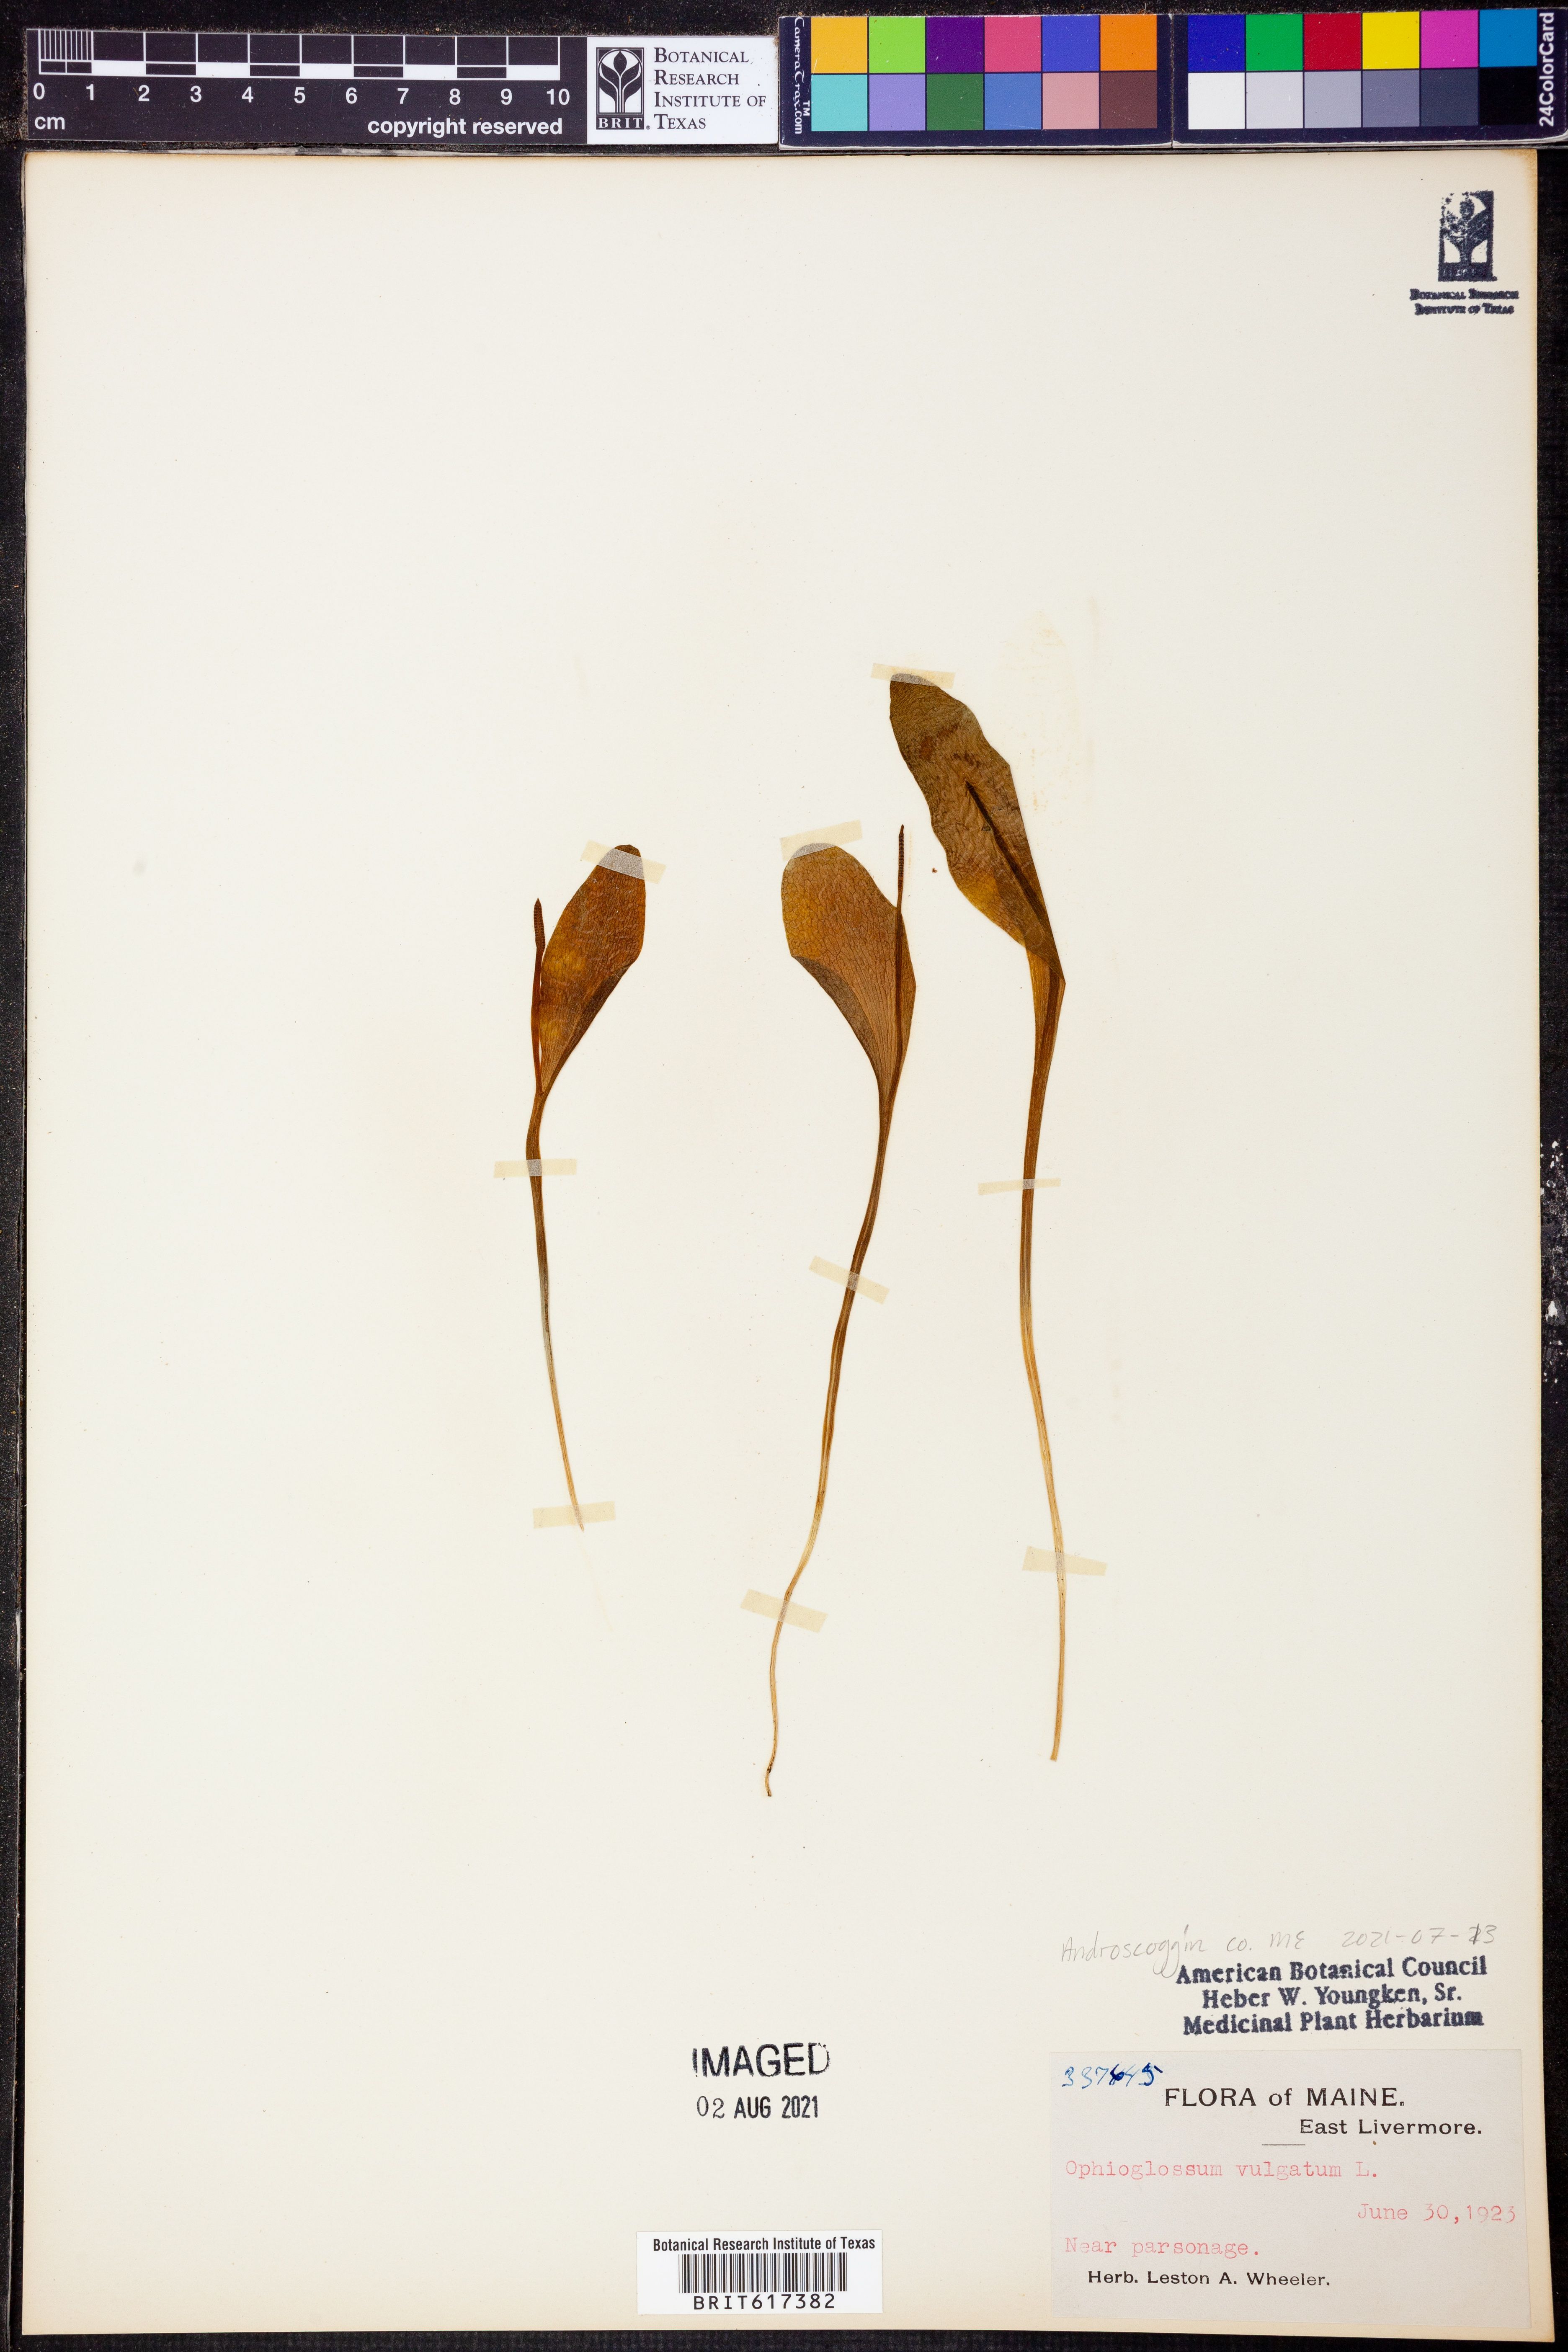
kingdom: Plantae
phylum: Tracheophyta
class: Polypodiopsida
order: Ophioglossales
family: Ophioglossaceae
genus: Ophioglossum
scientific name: Ophioglossum vulgatum
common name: Adder's-tongue
